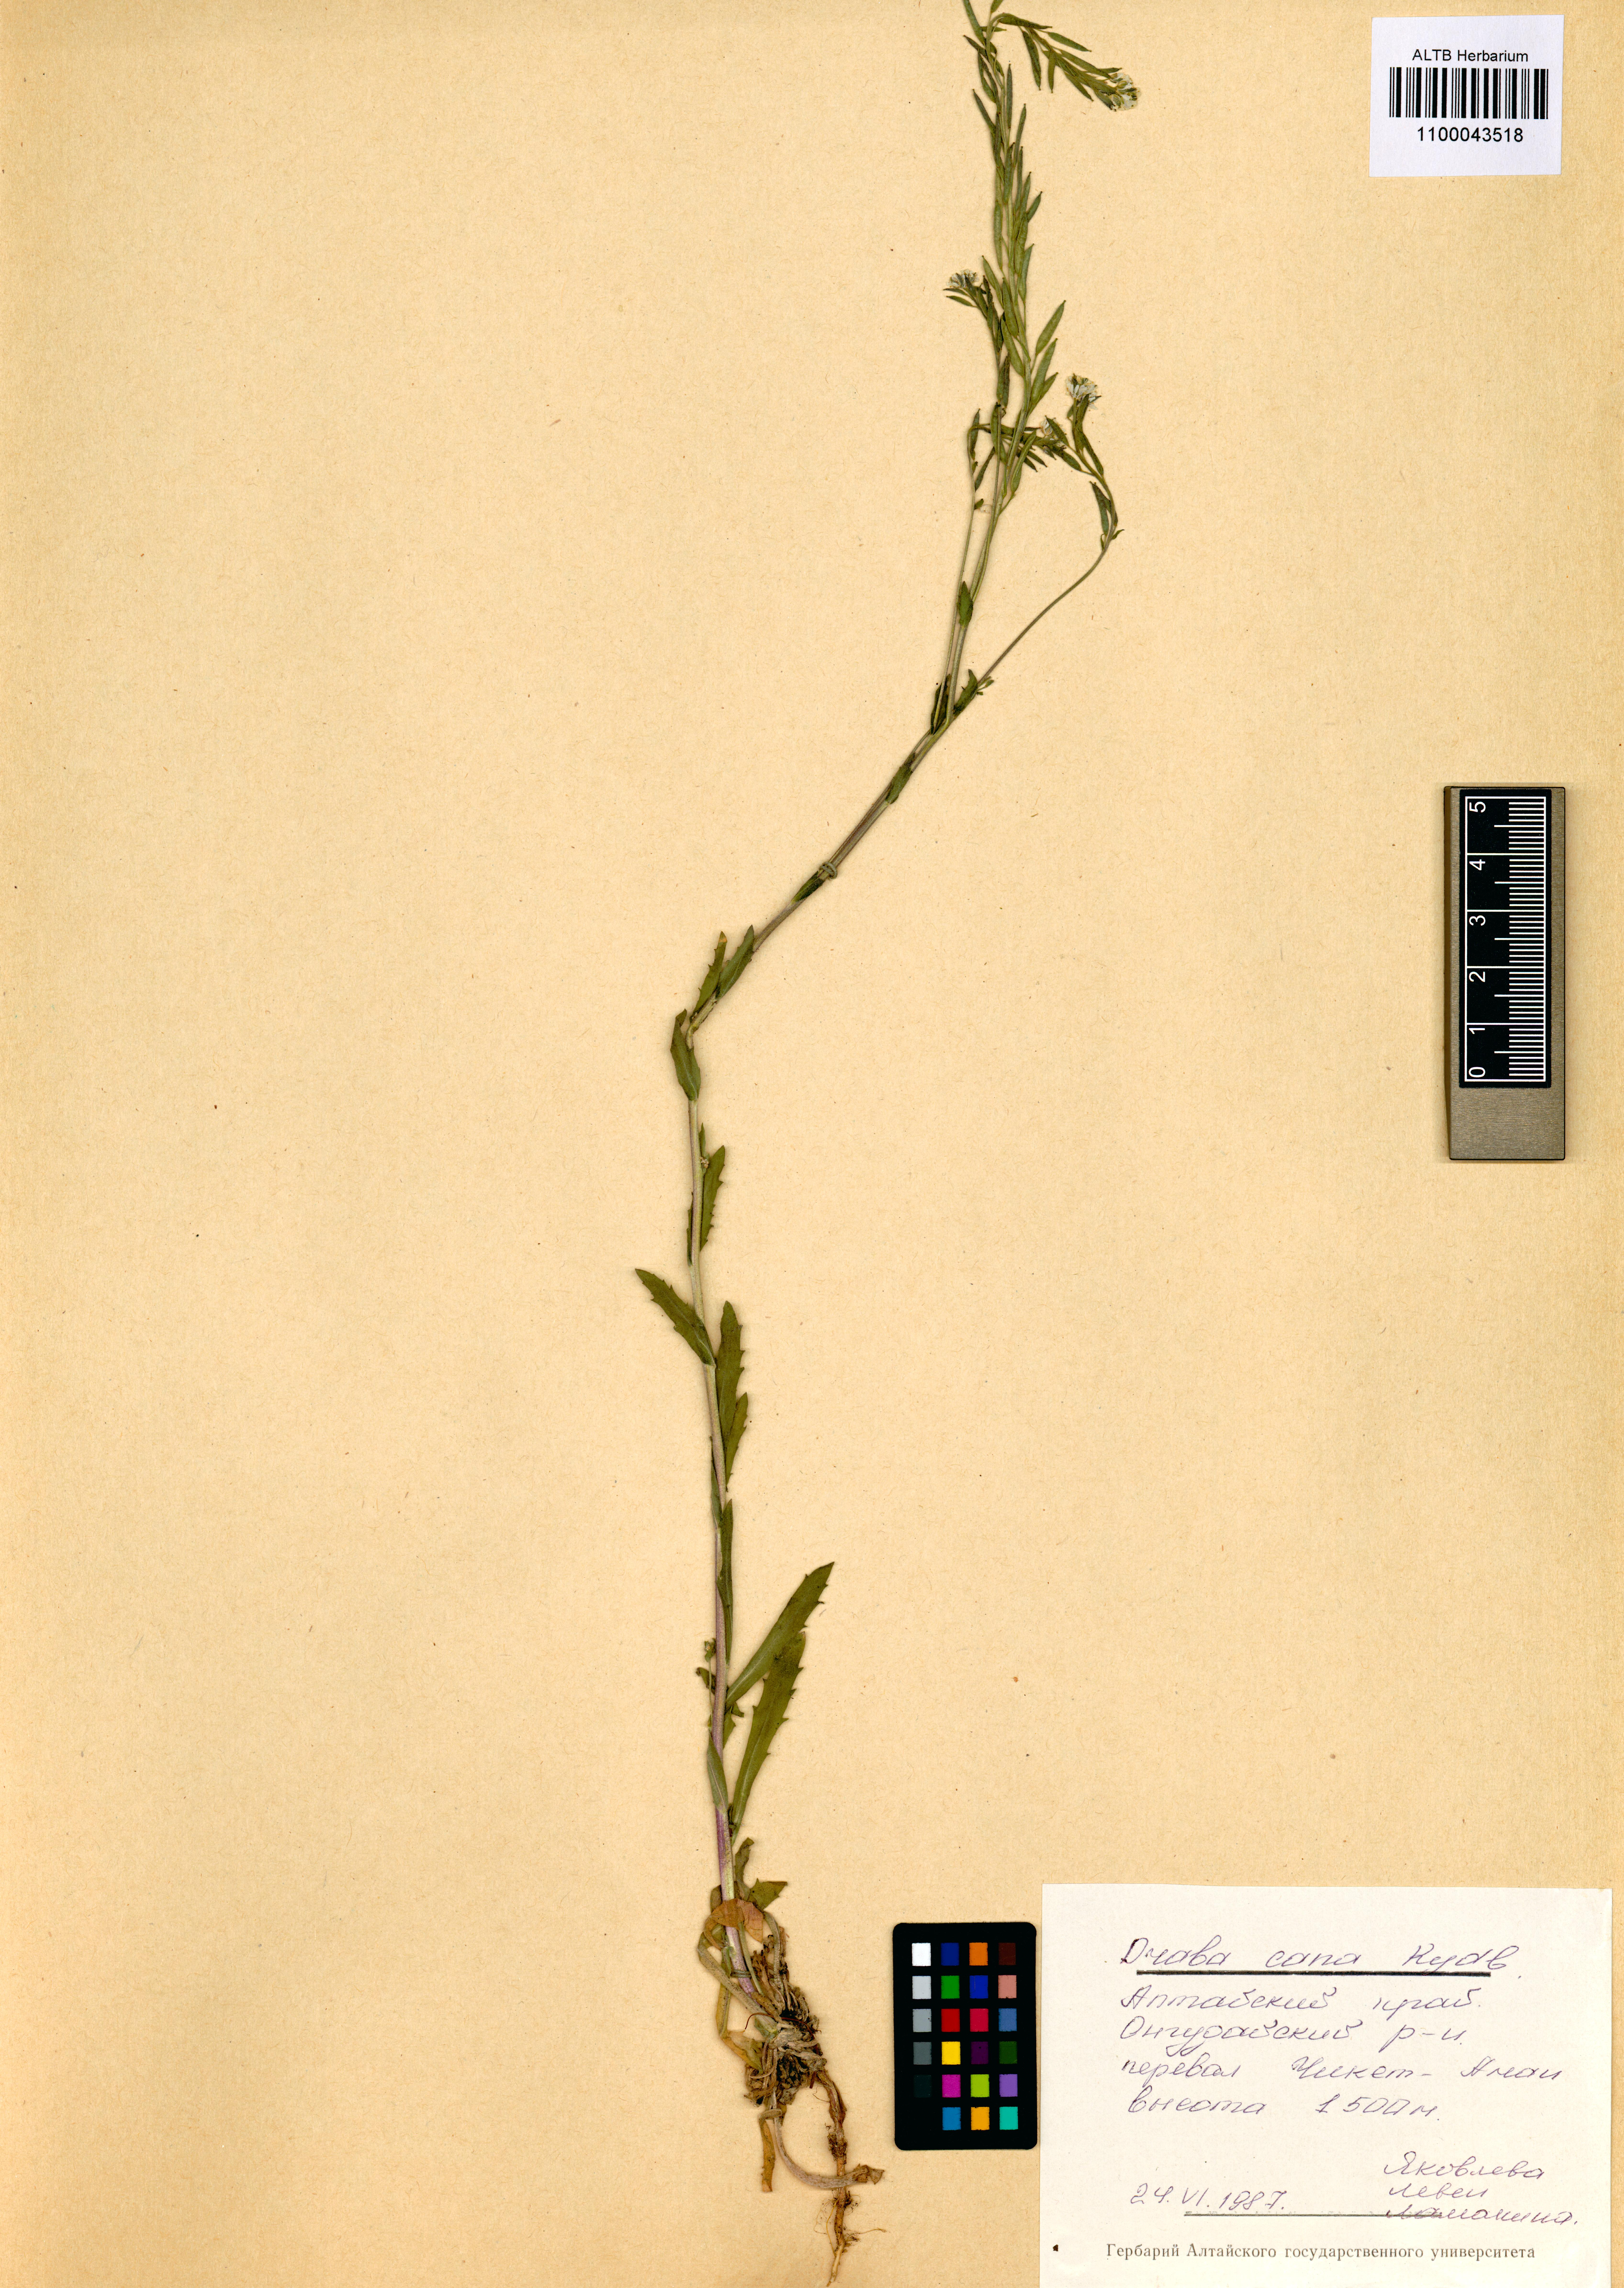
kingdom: Plantae
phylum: Tracheophyta
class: Magnoliopsida
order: Brassicales
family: Brassicaceae
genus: Draba
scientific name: Draba cana
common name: Hoary draba
